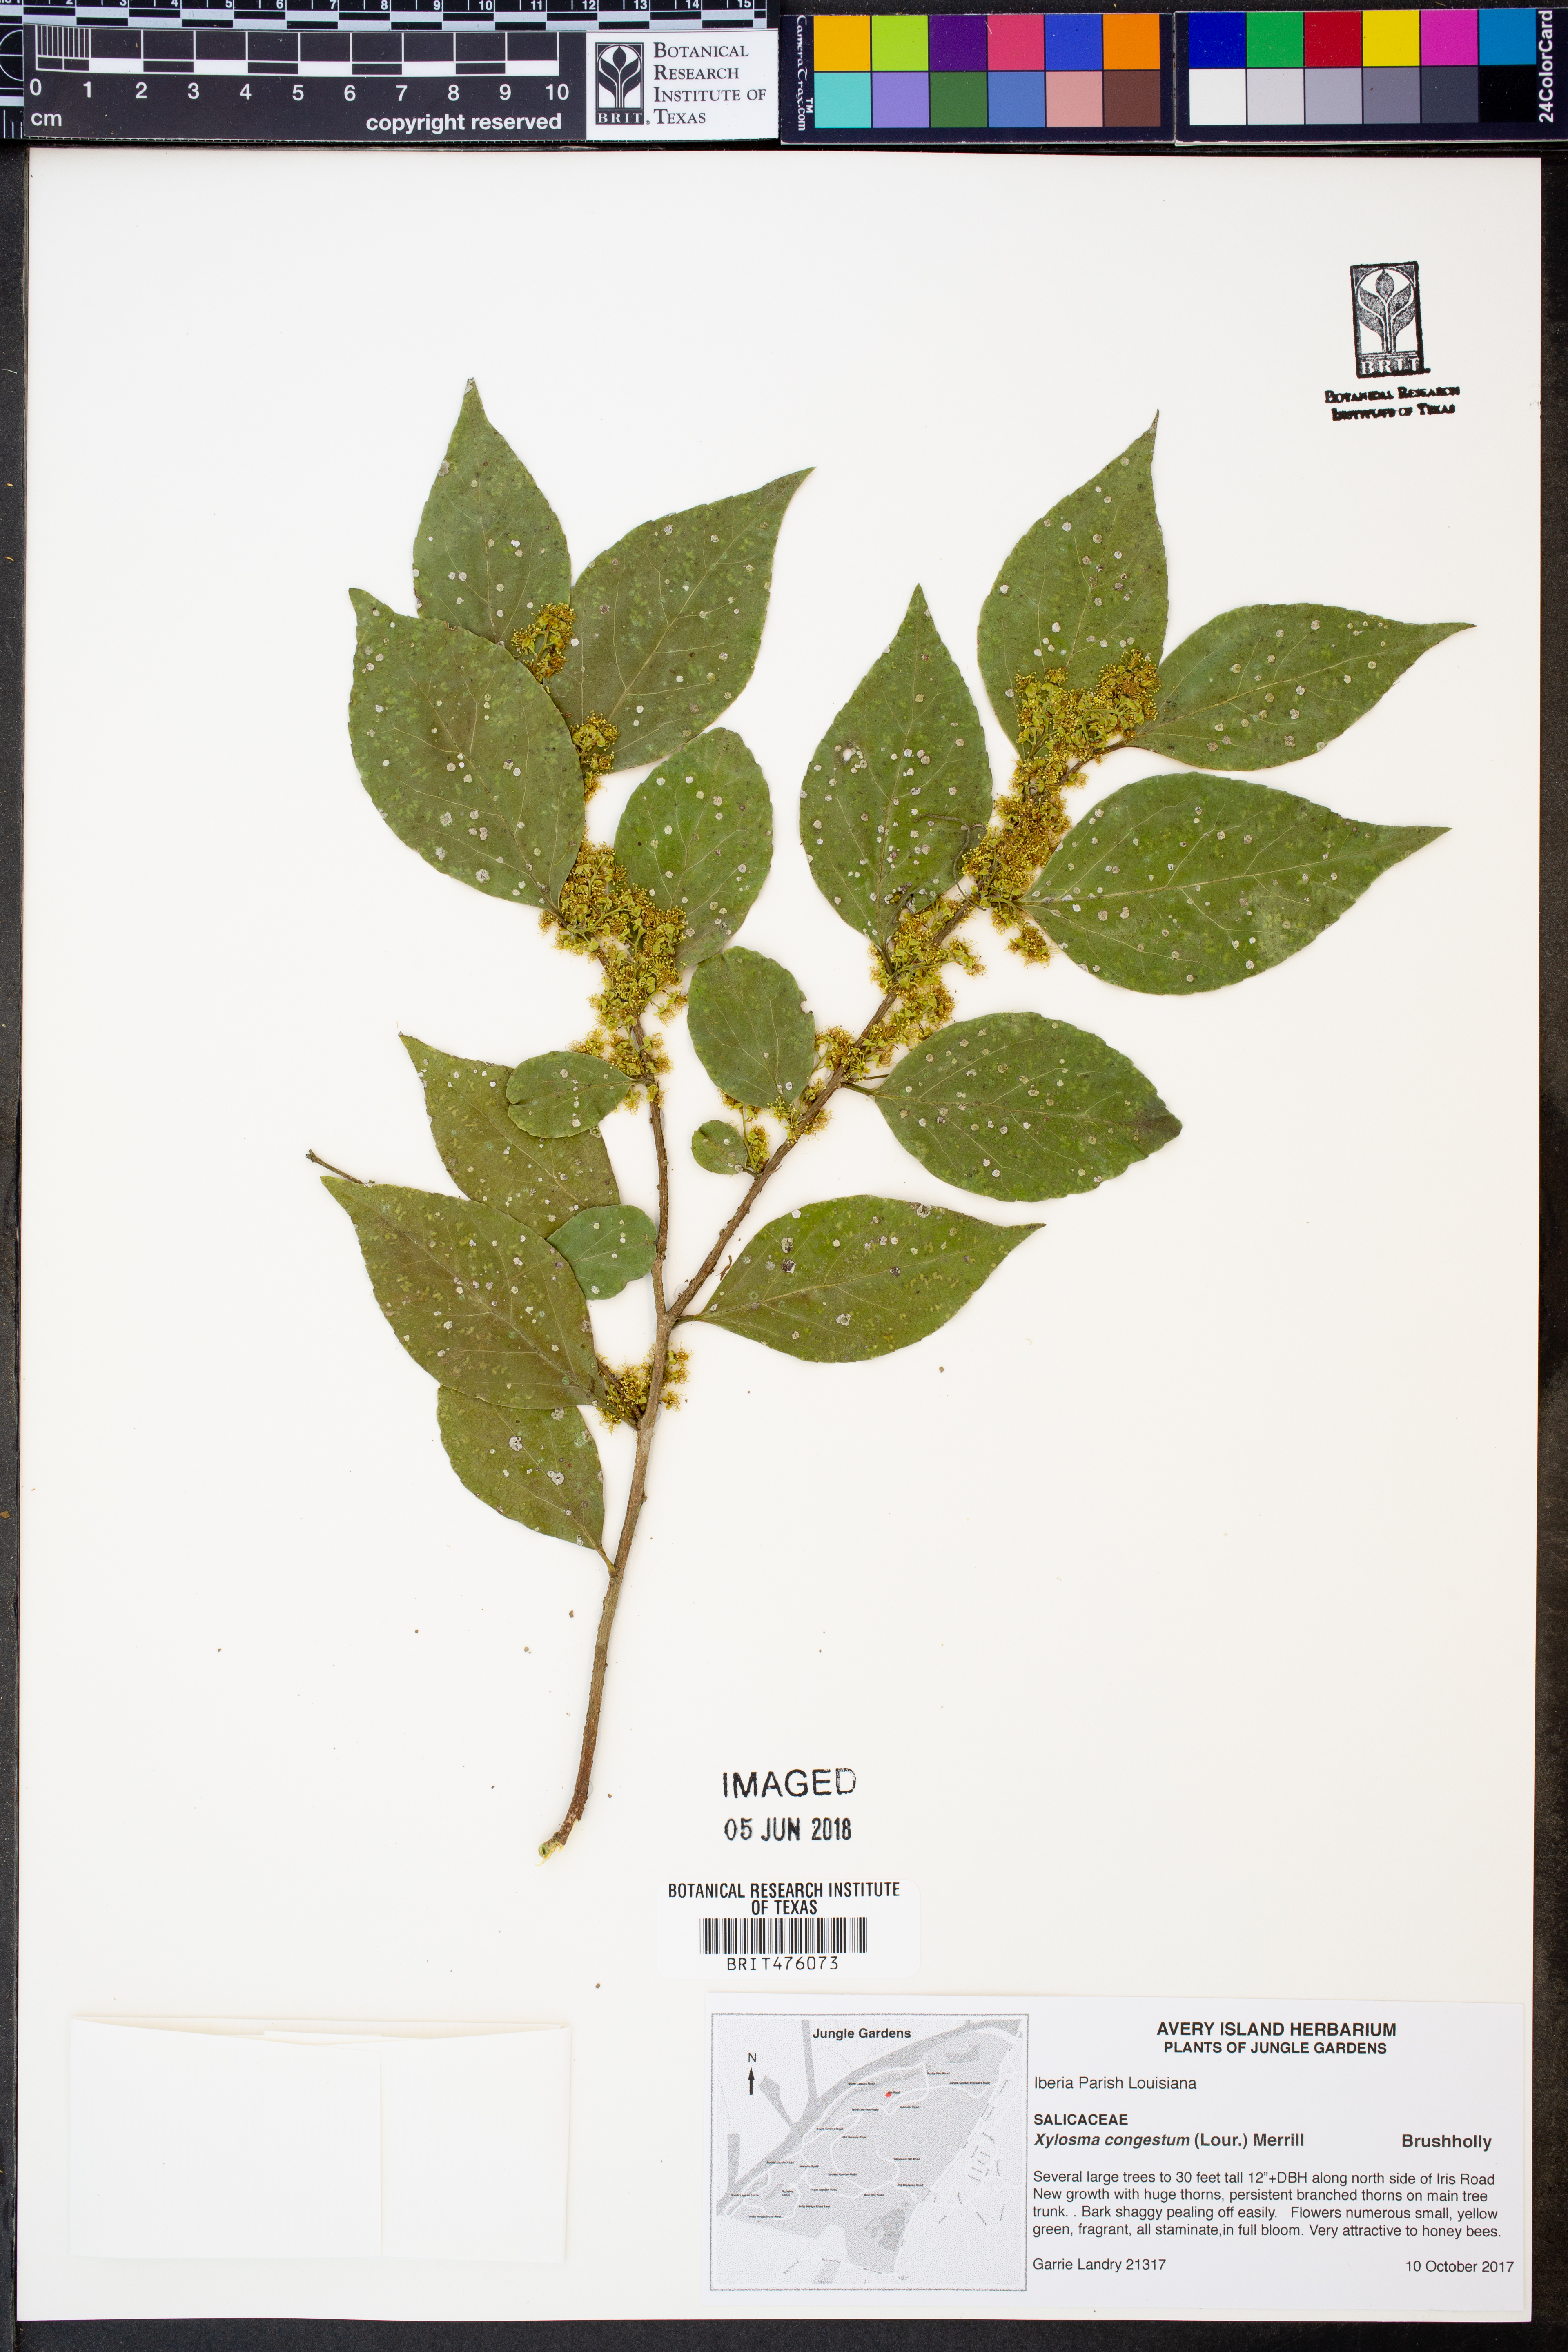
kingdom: Plantae
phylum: Tracheophyta
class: Magnoliopsida
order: Malpighiales
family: Salicaceae
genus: Xylosma
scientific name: Xylosma racemosum
